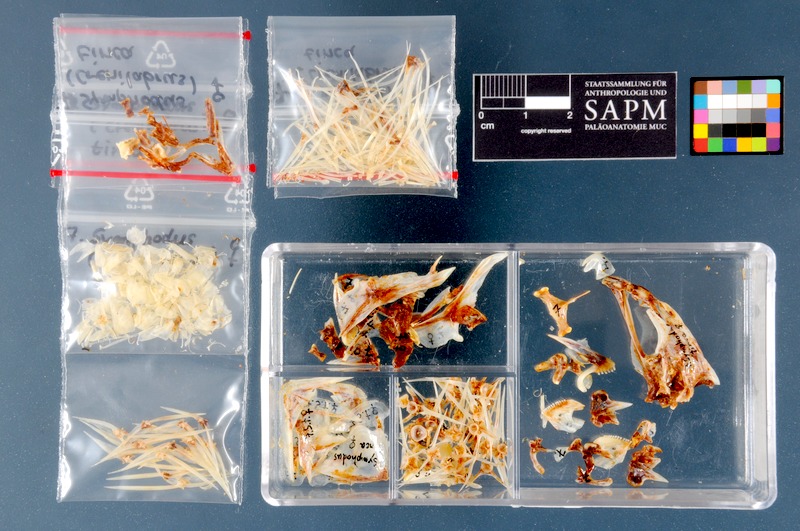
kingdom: Animalia
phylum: Chordata
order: Perciformes
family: Labridae
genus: Symphodus
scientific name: Symphodus tinca
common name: Peacock wrasse
